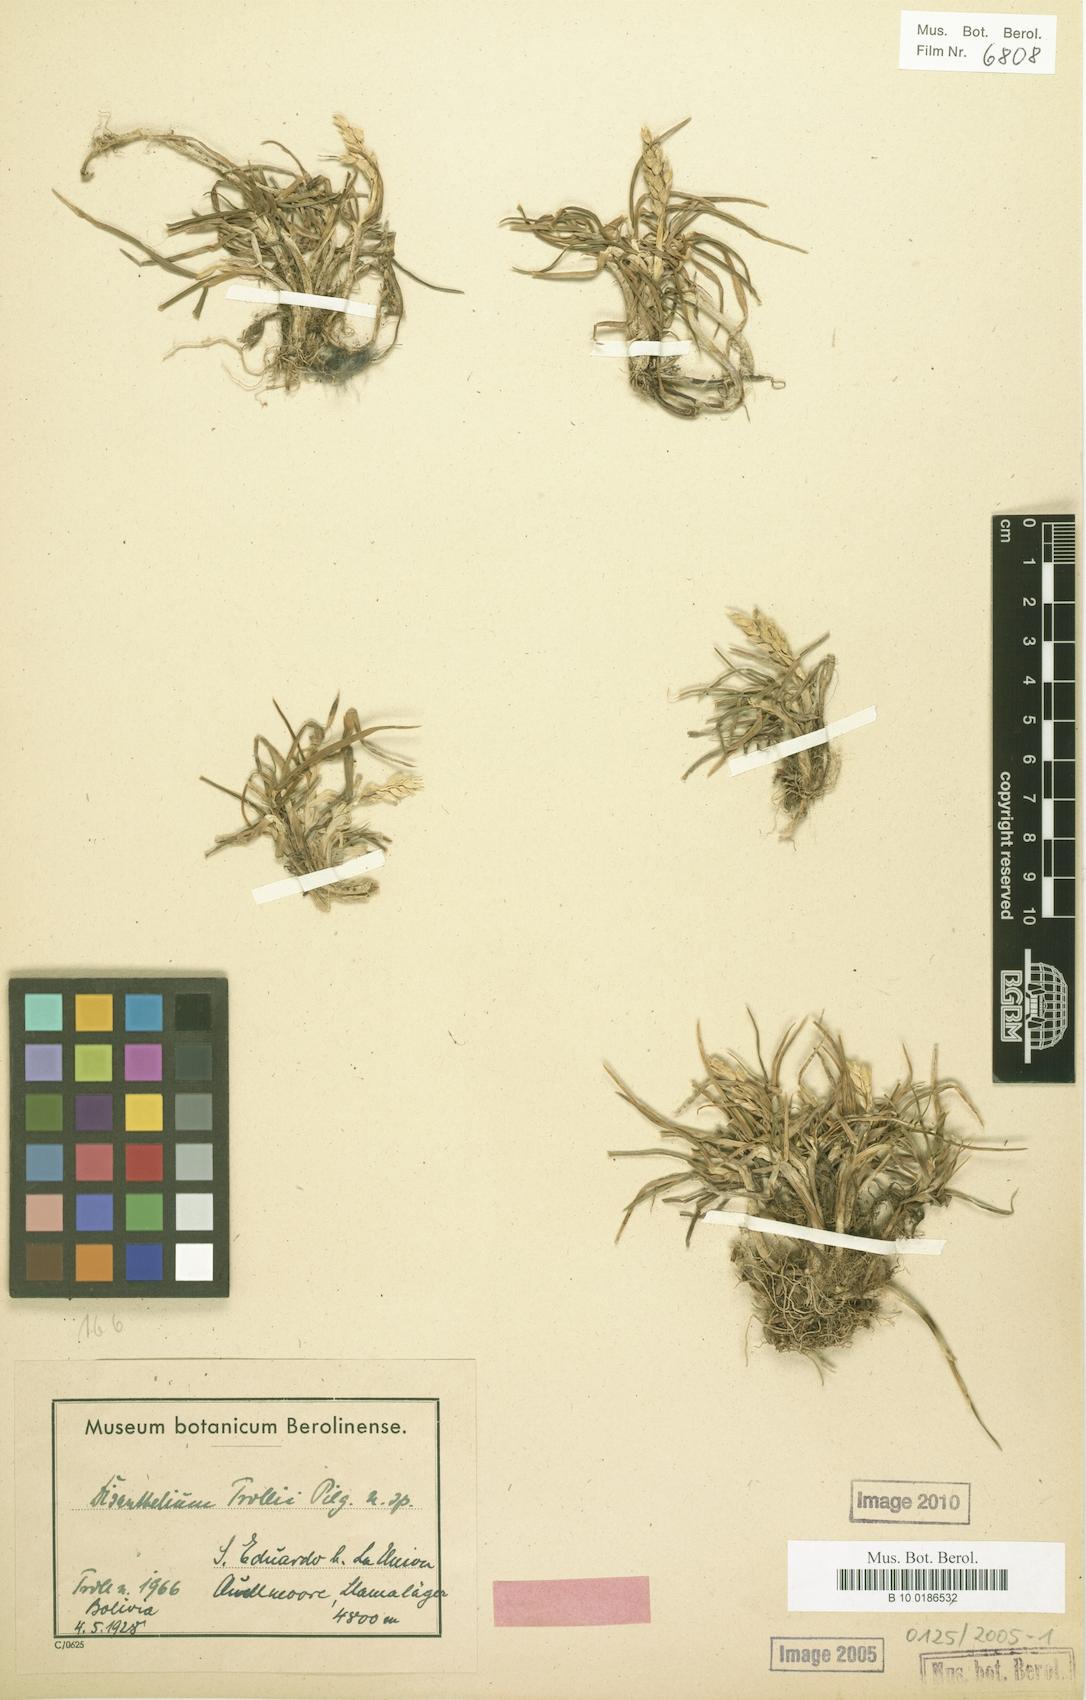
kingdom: Plantae
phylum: Tracheophyta
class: Liliopsida
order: Poales
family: Poaceae
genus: Poa
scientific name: Poa trollii
